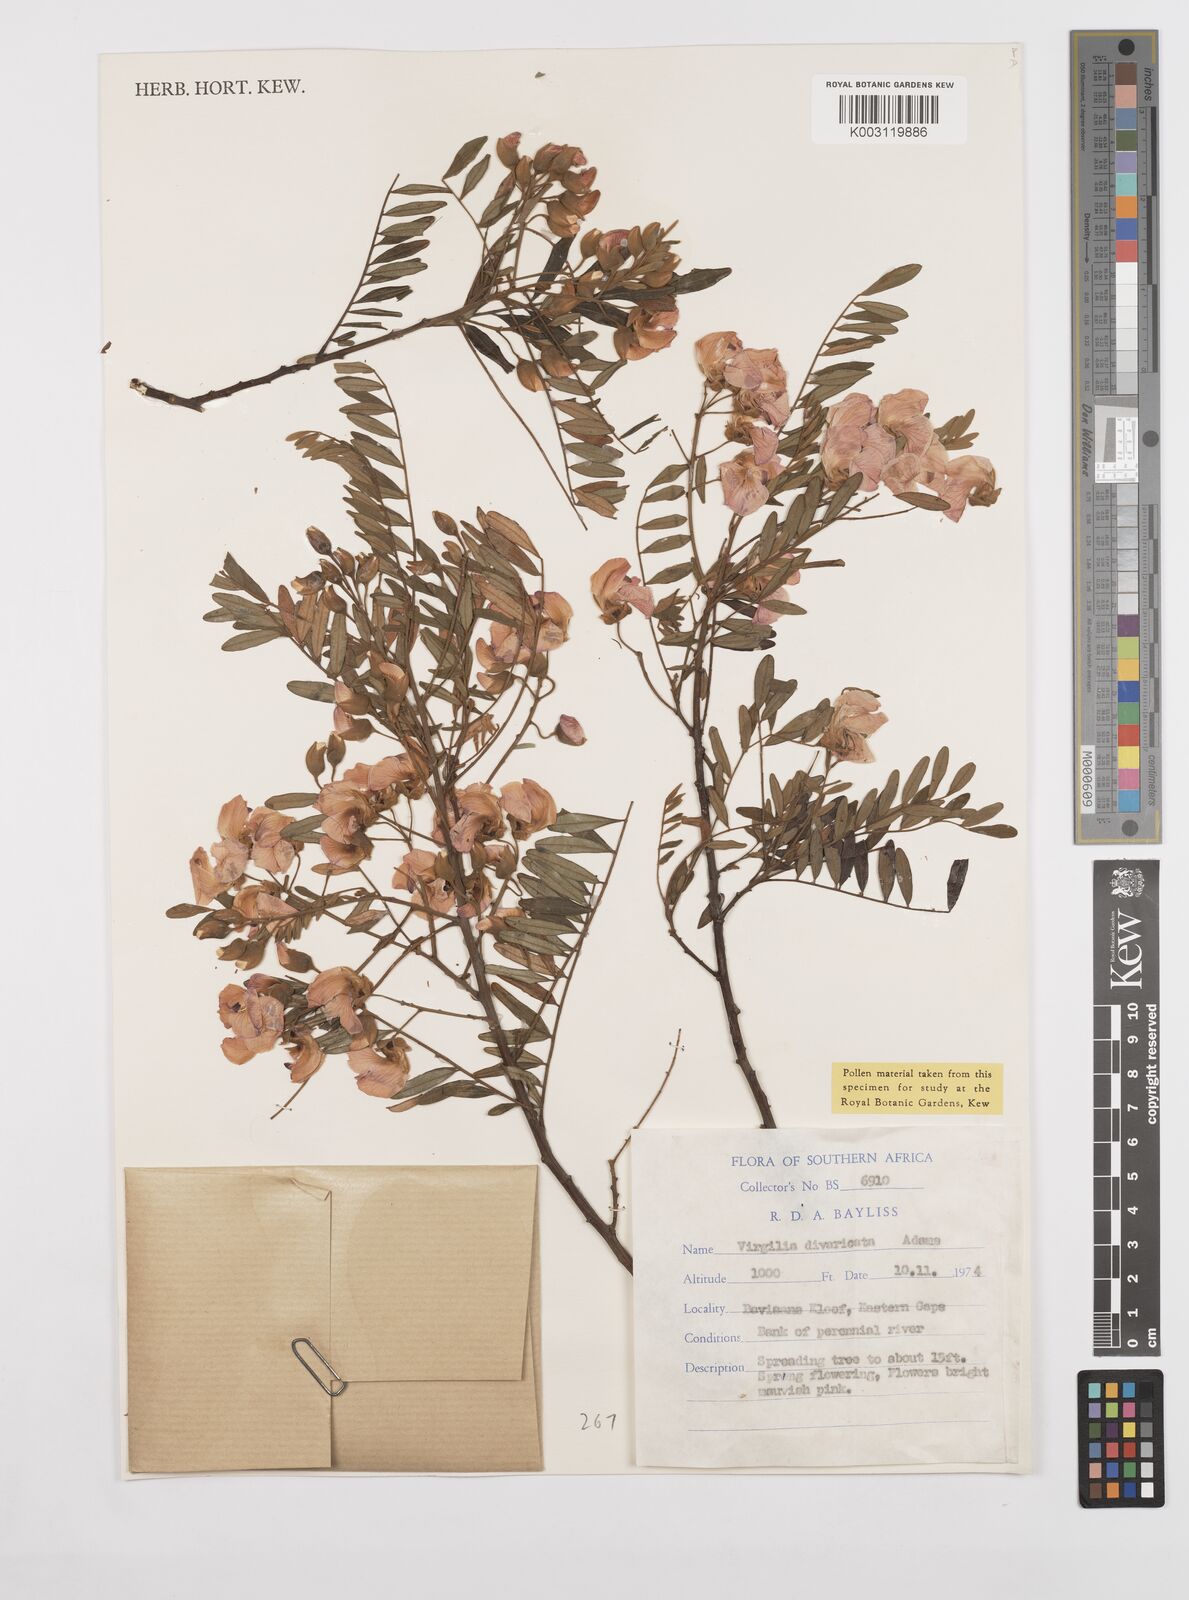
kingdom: Plantae
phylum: Tracheophyta
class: Magnoliopsida
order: Fabales
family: Fabaceae
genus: Virgilia
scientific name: Virgilia oroboides
